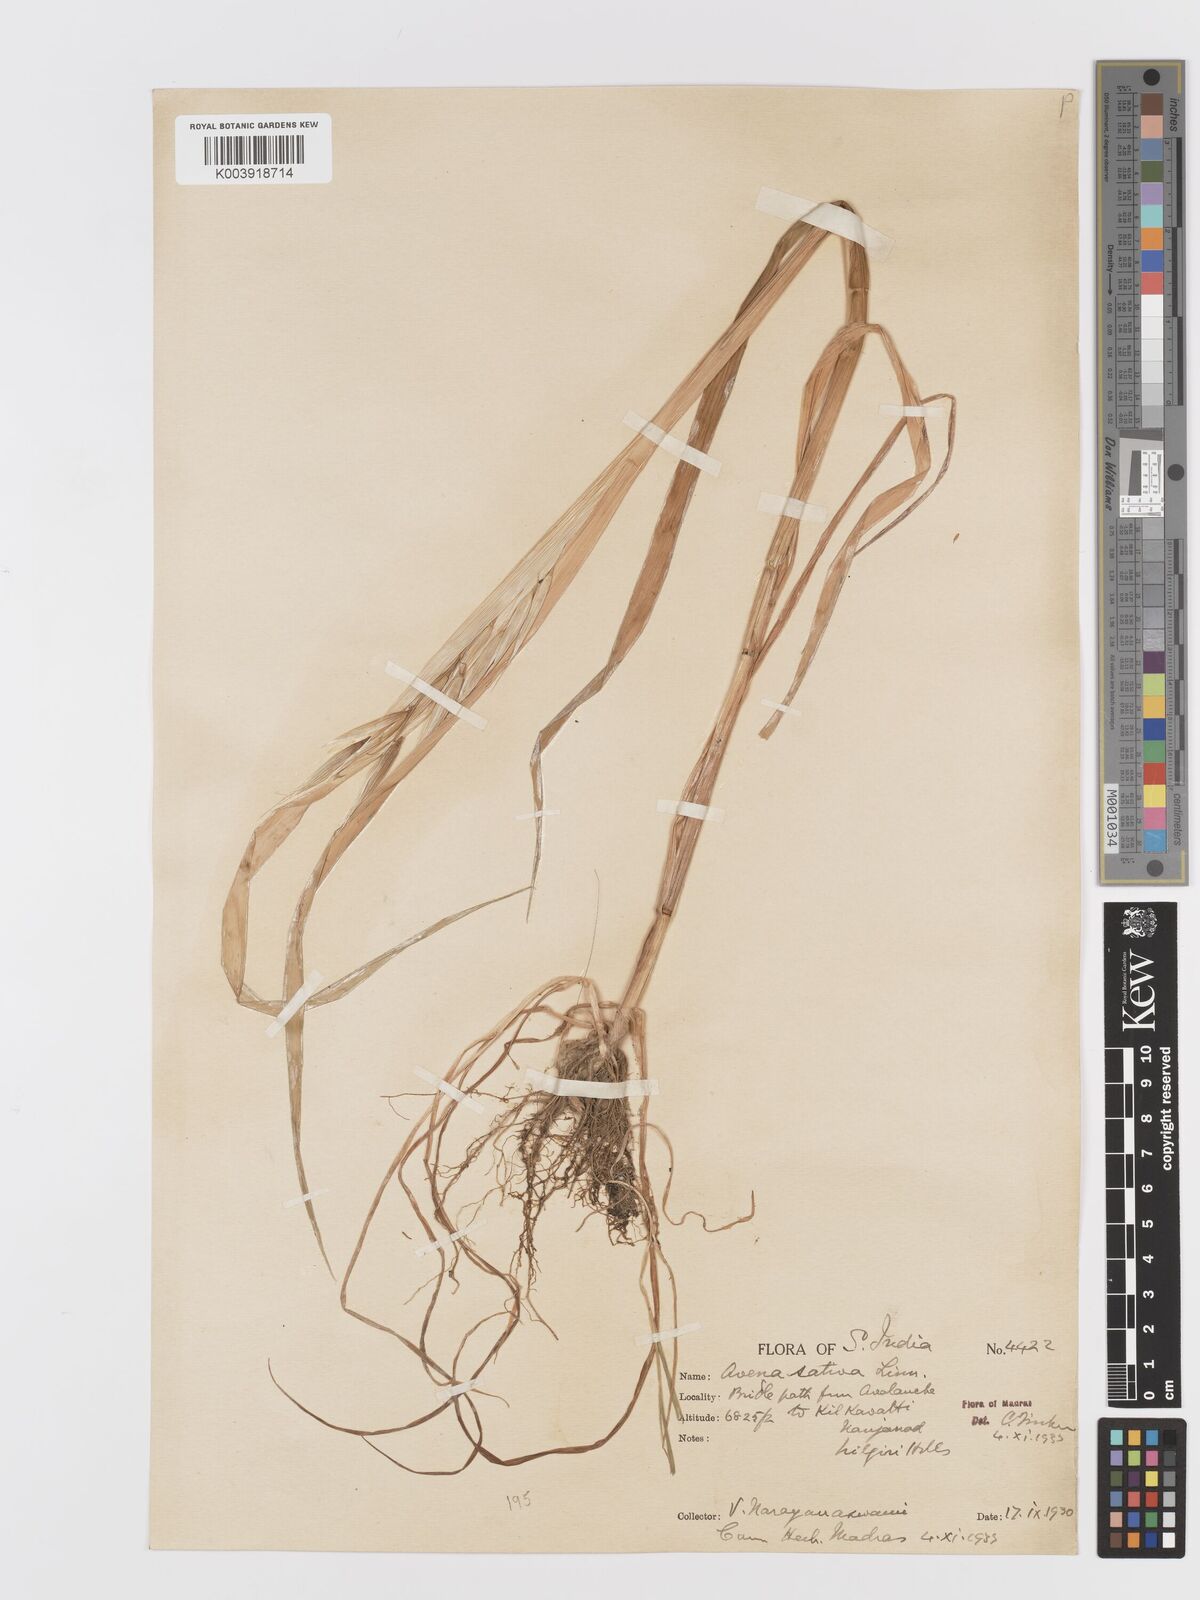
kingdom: Plantae
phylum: Tracheophyta
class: Liliopsida
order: Poales
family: Poaceae
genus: Avena
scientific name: Avena byzantina
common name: Algerian oat
